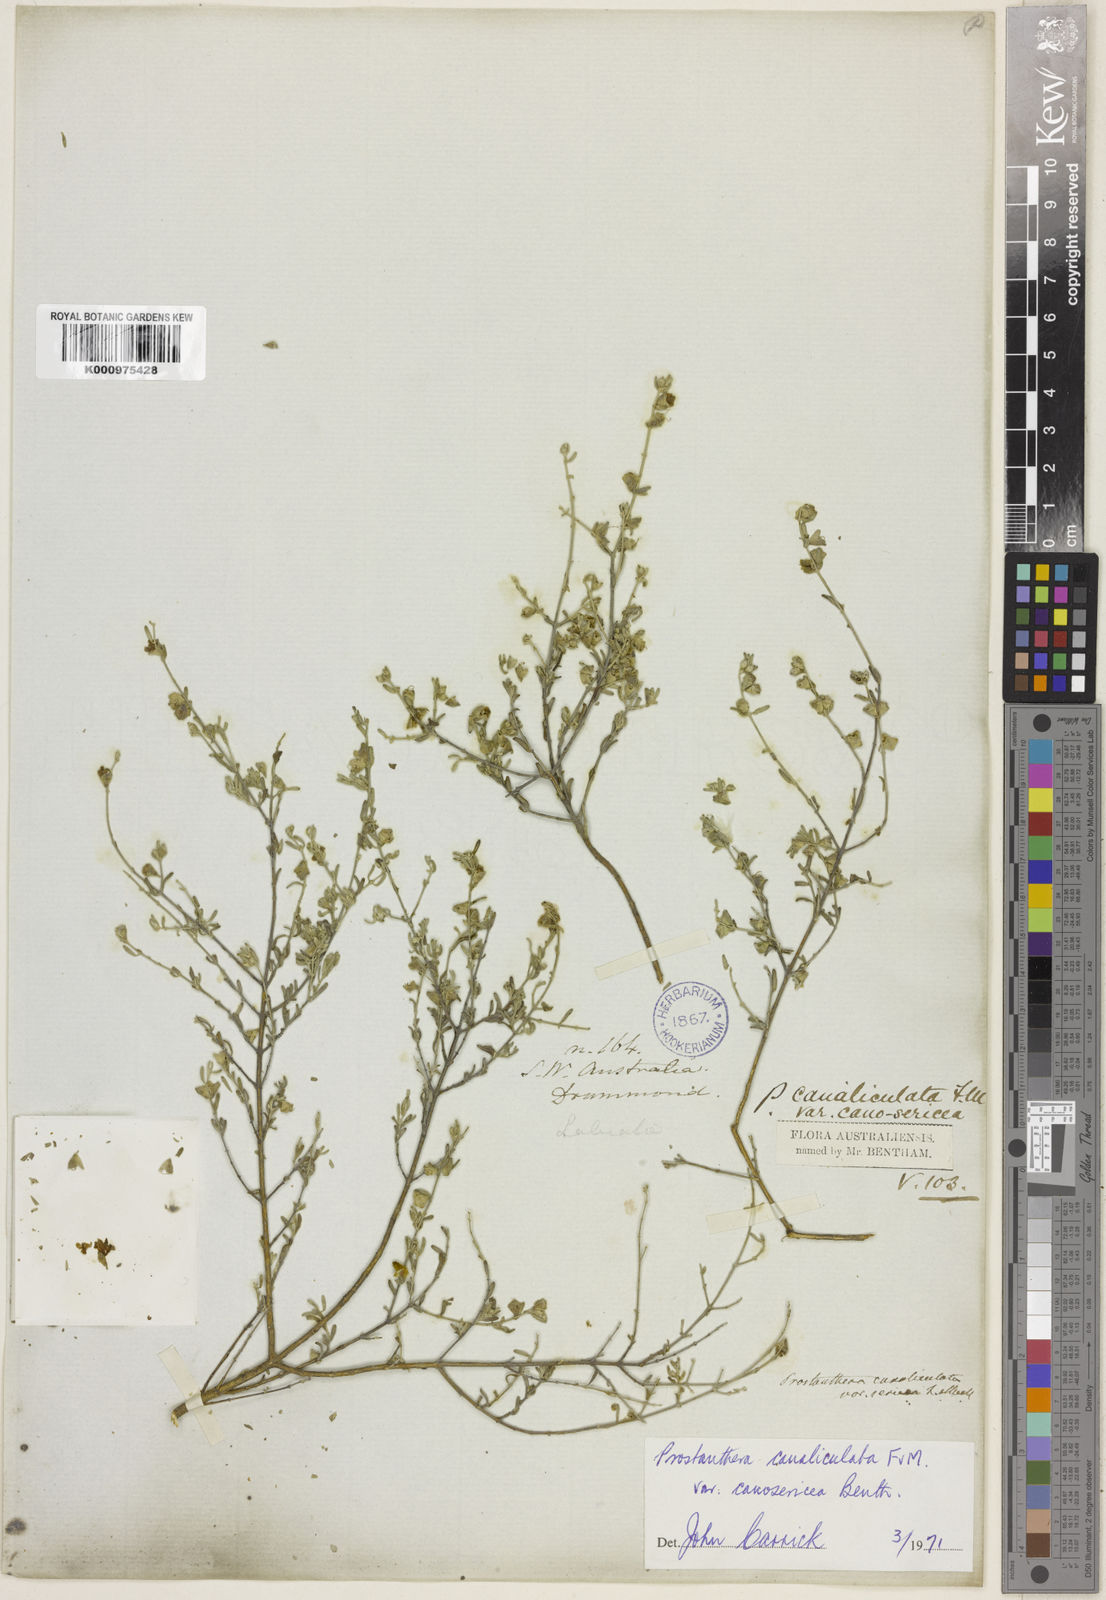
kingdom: Plantae
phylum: Tracheophyta
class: Magnoliopsida
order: Lamiales
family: Lamiaceae
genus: Prostanthera
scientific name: Prostanthera canaliculata
